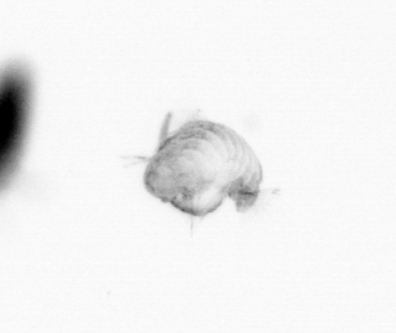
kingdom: Animalia
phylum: Annelida
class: Polychaeta
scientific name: Polychaeta
